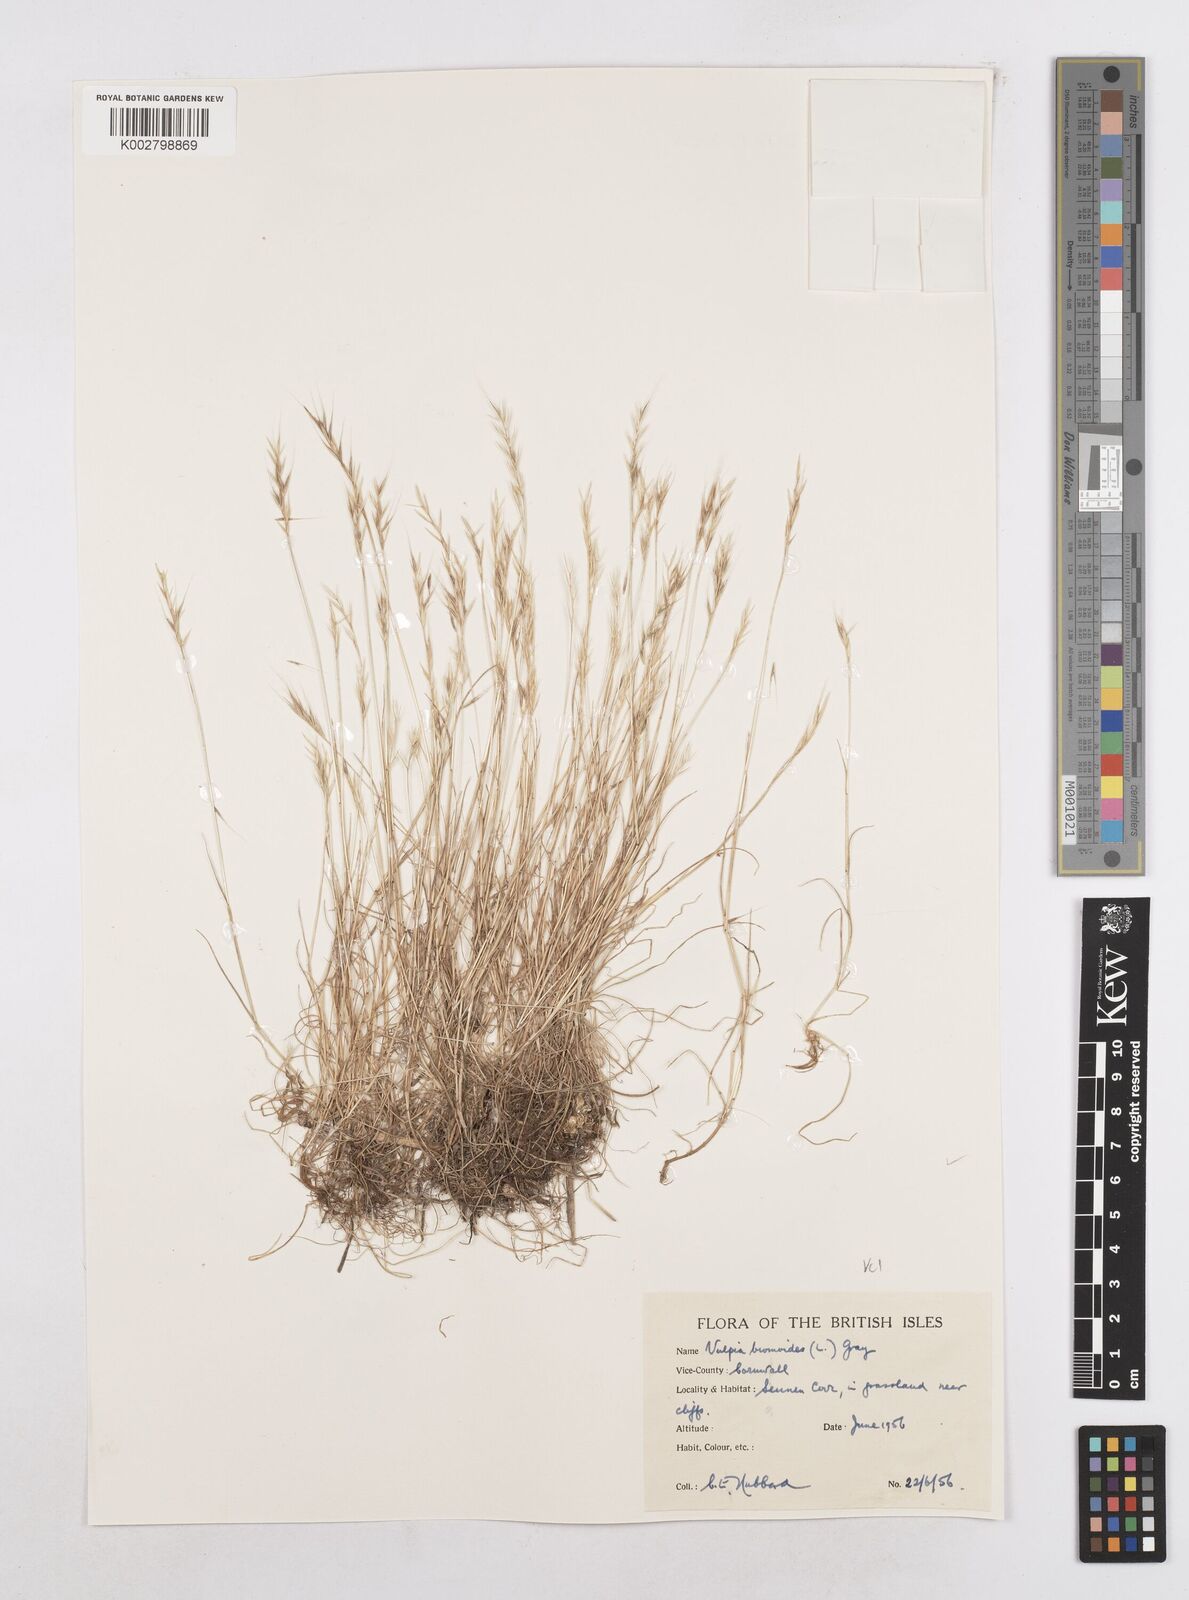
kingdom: Plantae
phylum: Tracheophyta
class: Liliopsida
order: Poales
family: Poaceae
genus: Festuca
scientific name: Festuca bromoides
